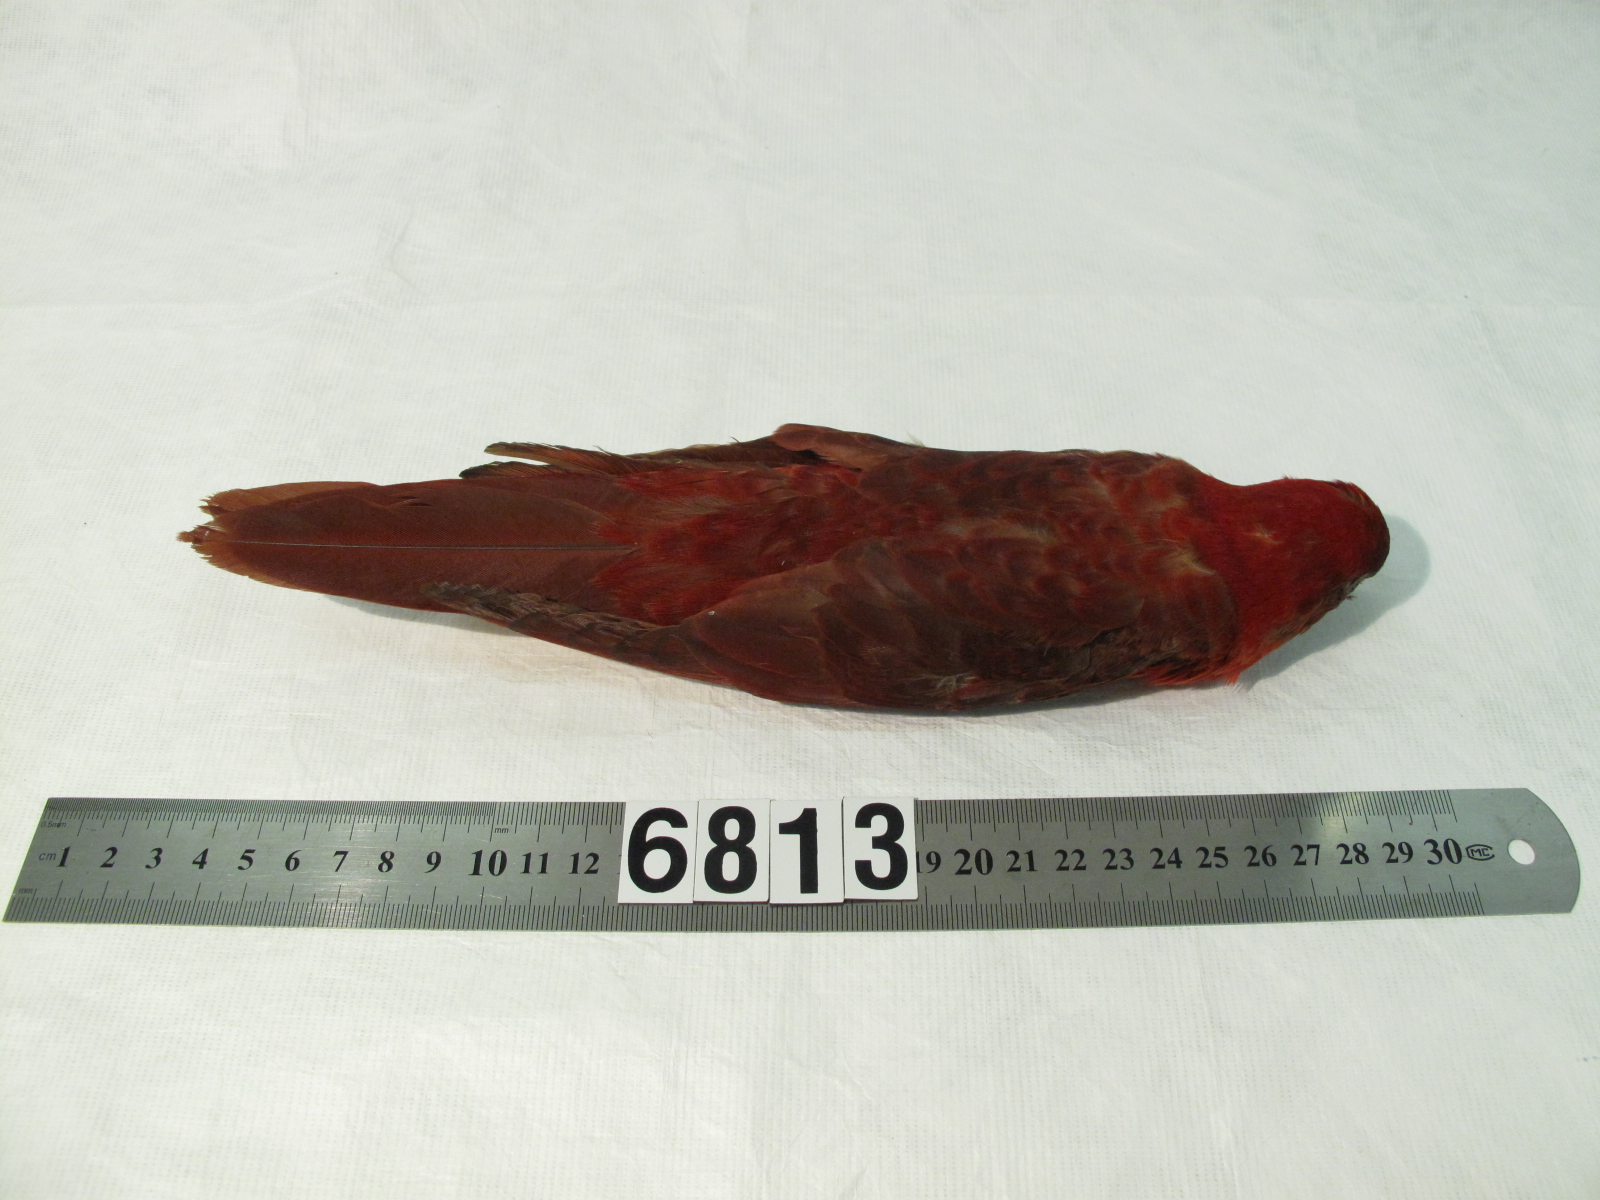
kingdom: Animalia
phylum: Chordata
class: Aves
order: Psittaciformes
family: Psittacidae
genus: Chalcopsitta
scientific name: Chalcopsitta cardinalis
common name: Cardinal lory
